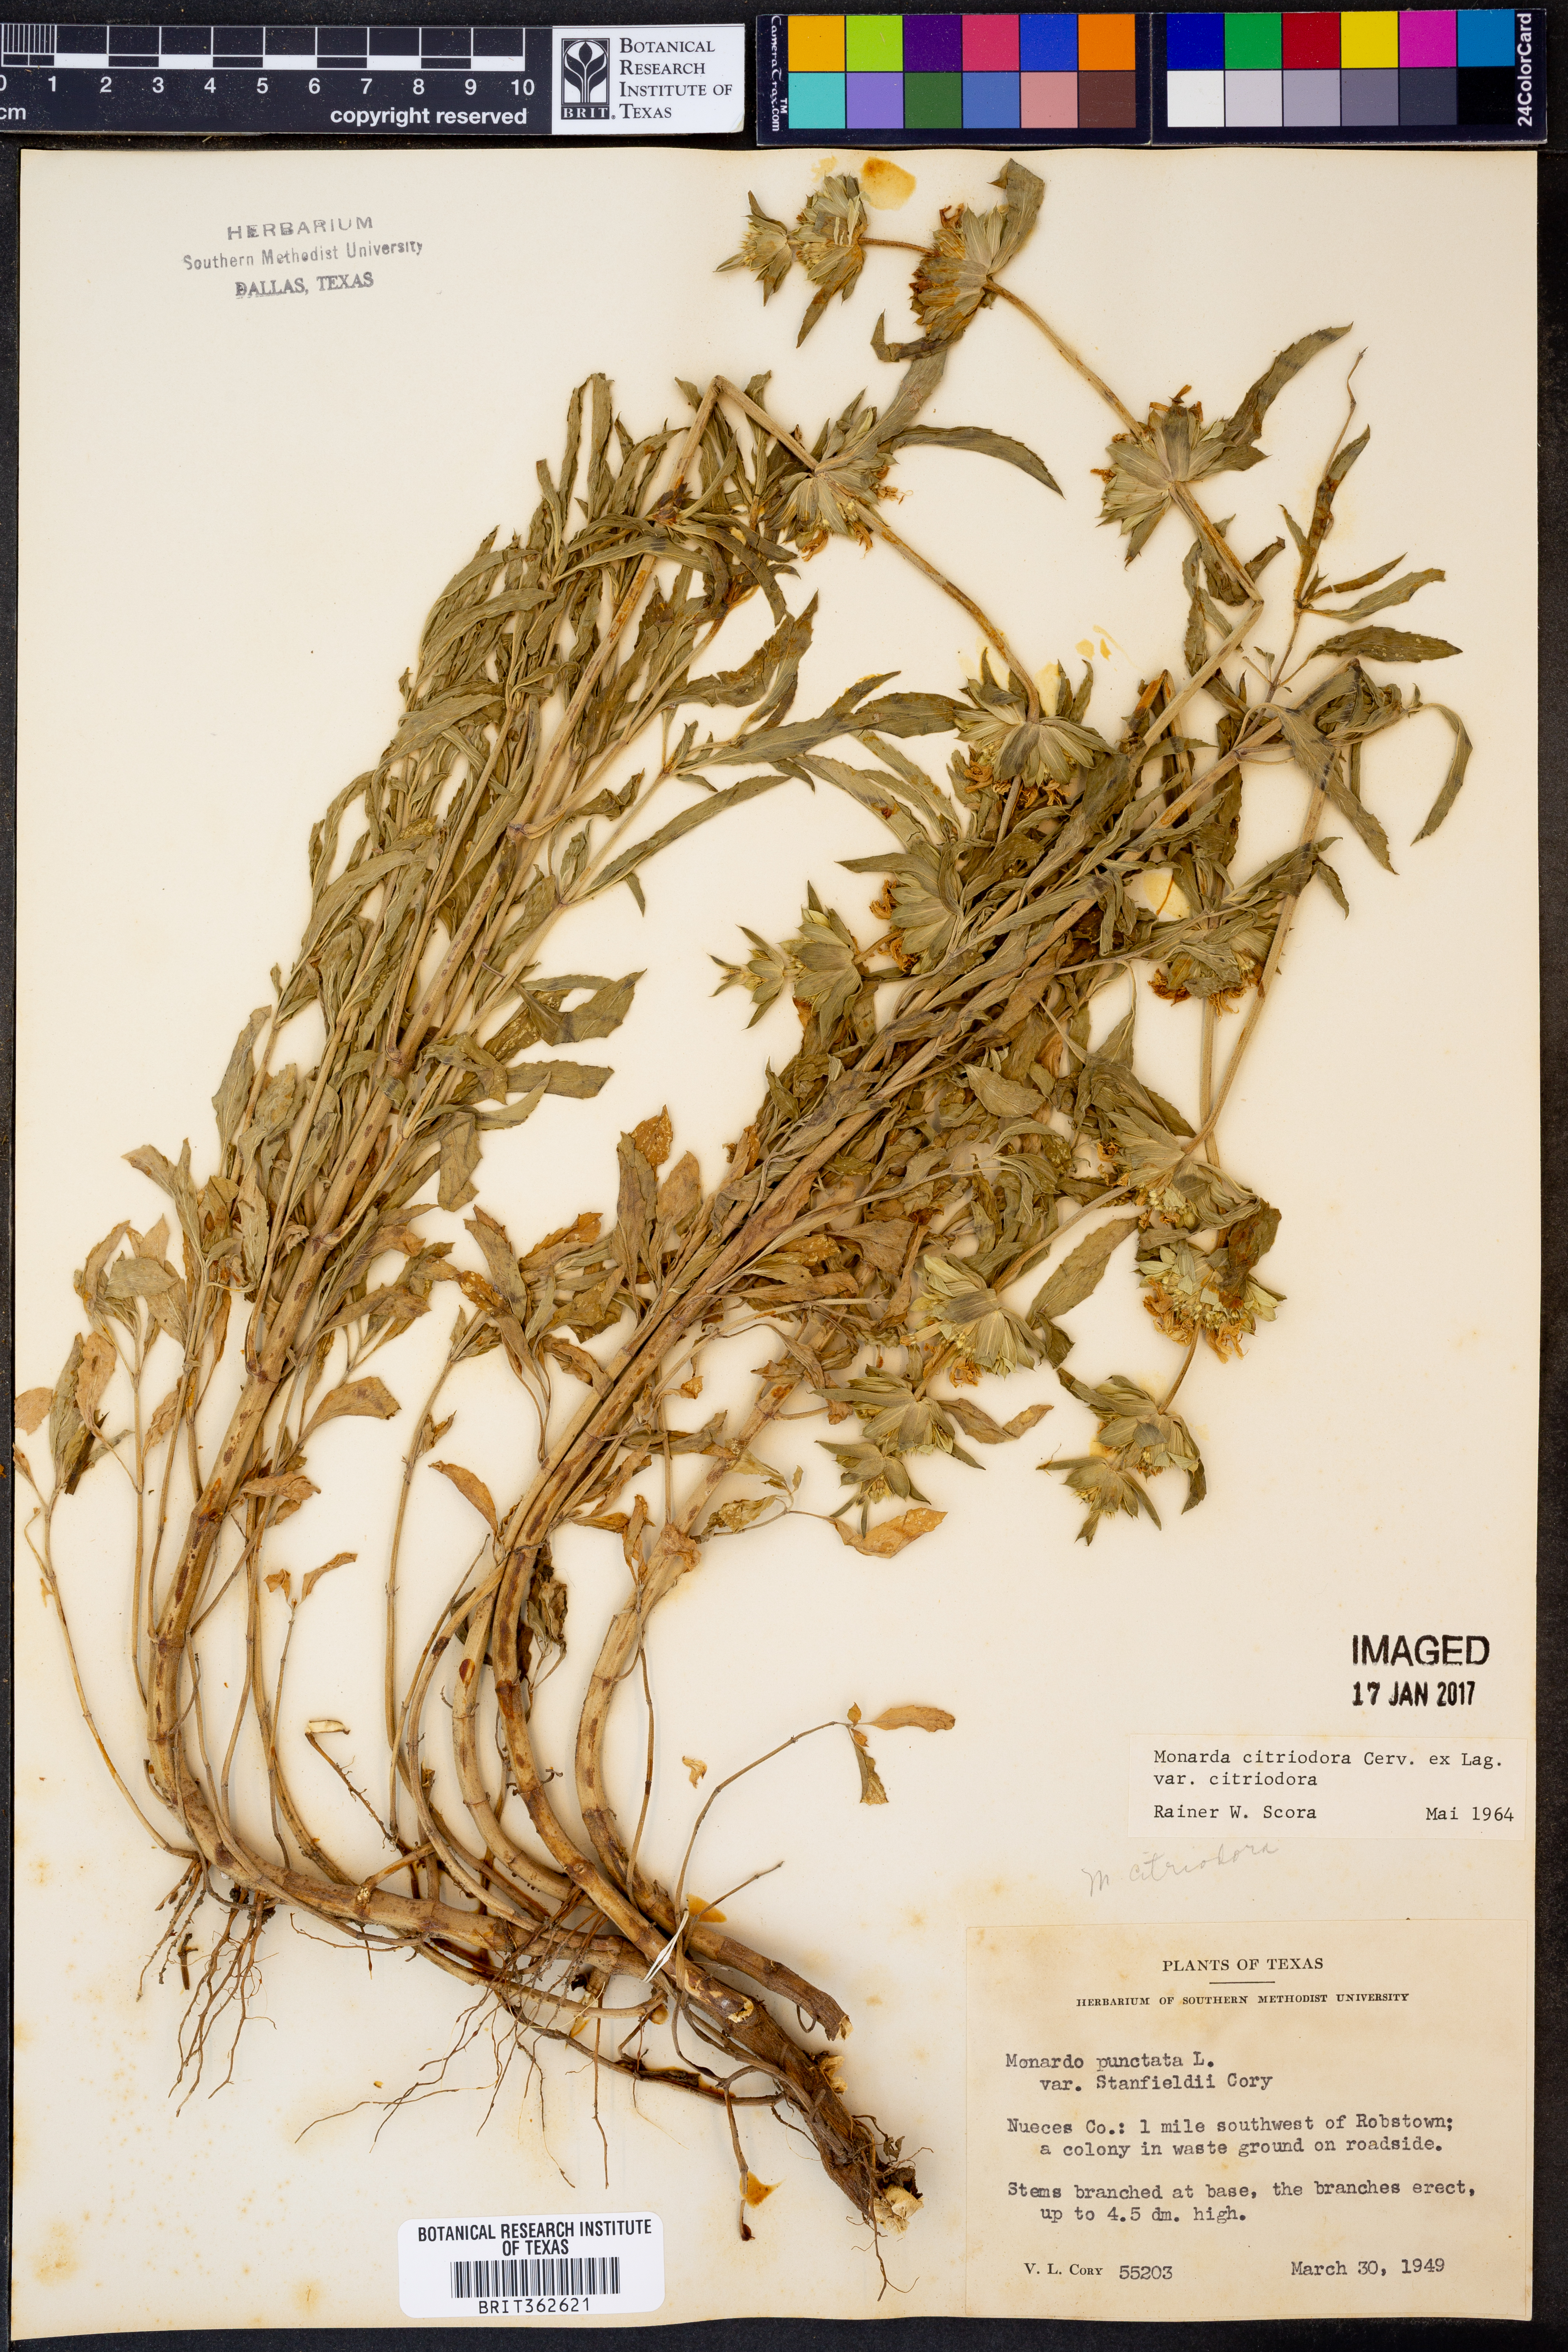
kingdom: Plantae
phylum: Tracheophyta
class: Magnoliopsida
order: Lamiales
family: Lamiaceae
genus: Monarda
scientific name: Monarda citriodora
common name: Lemon beebalm
